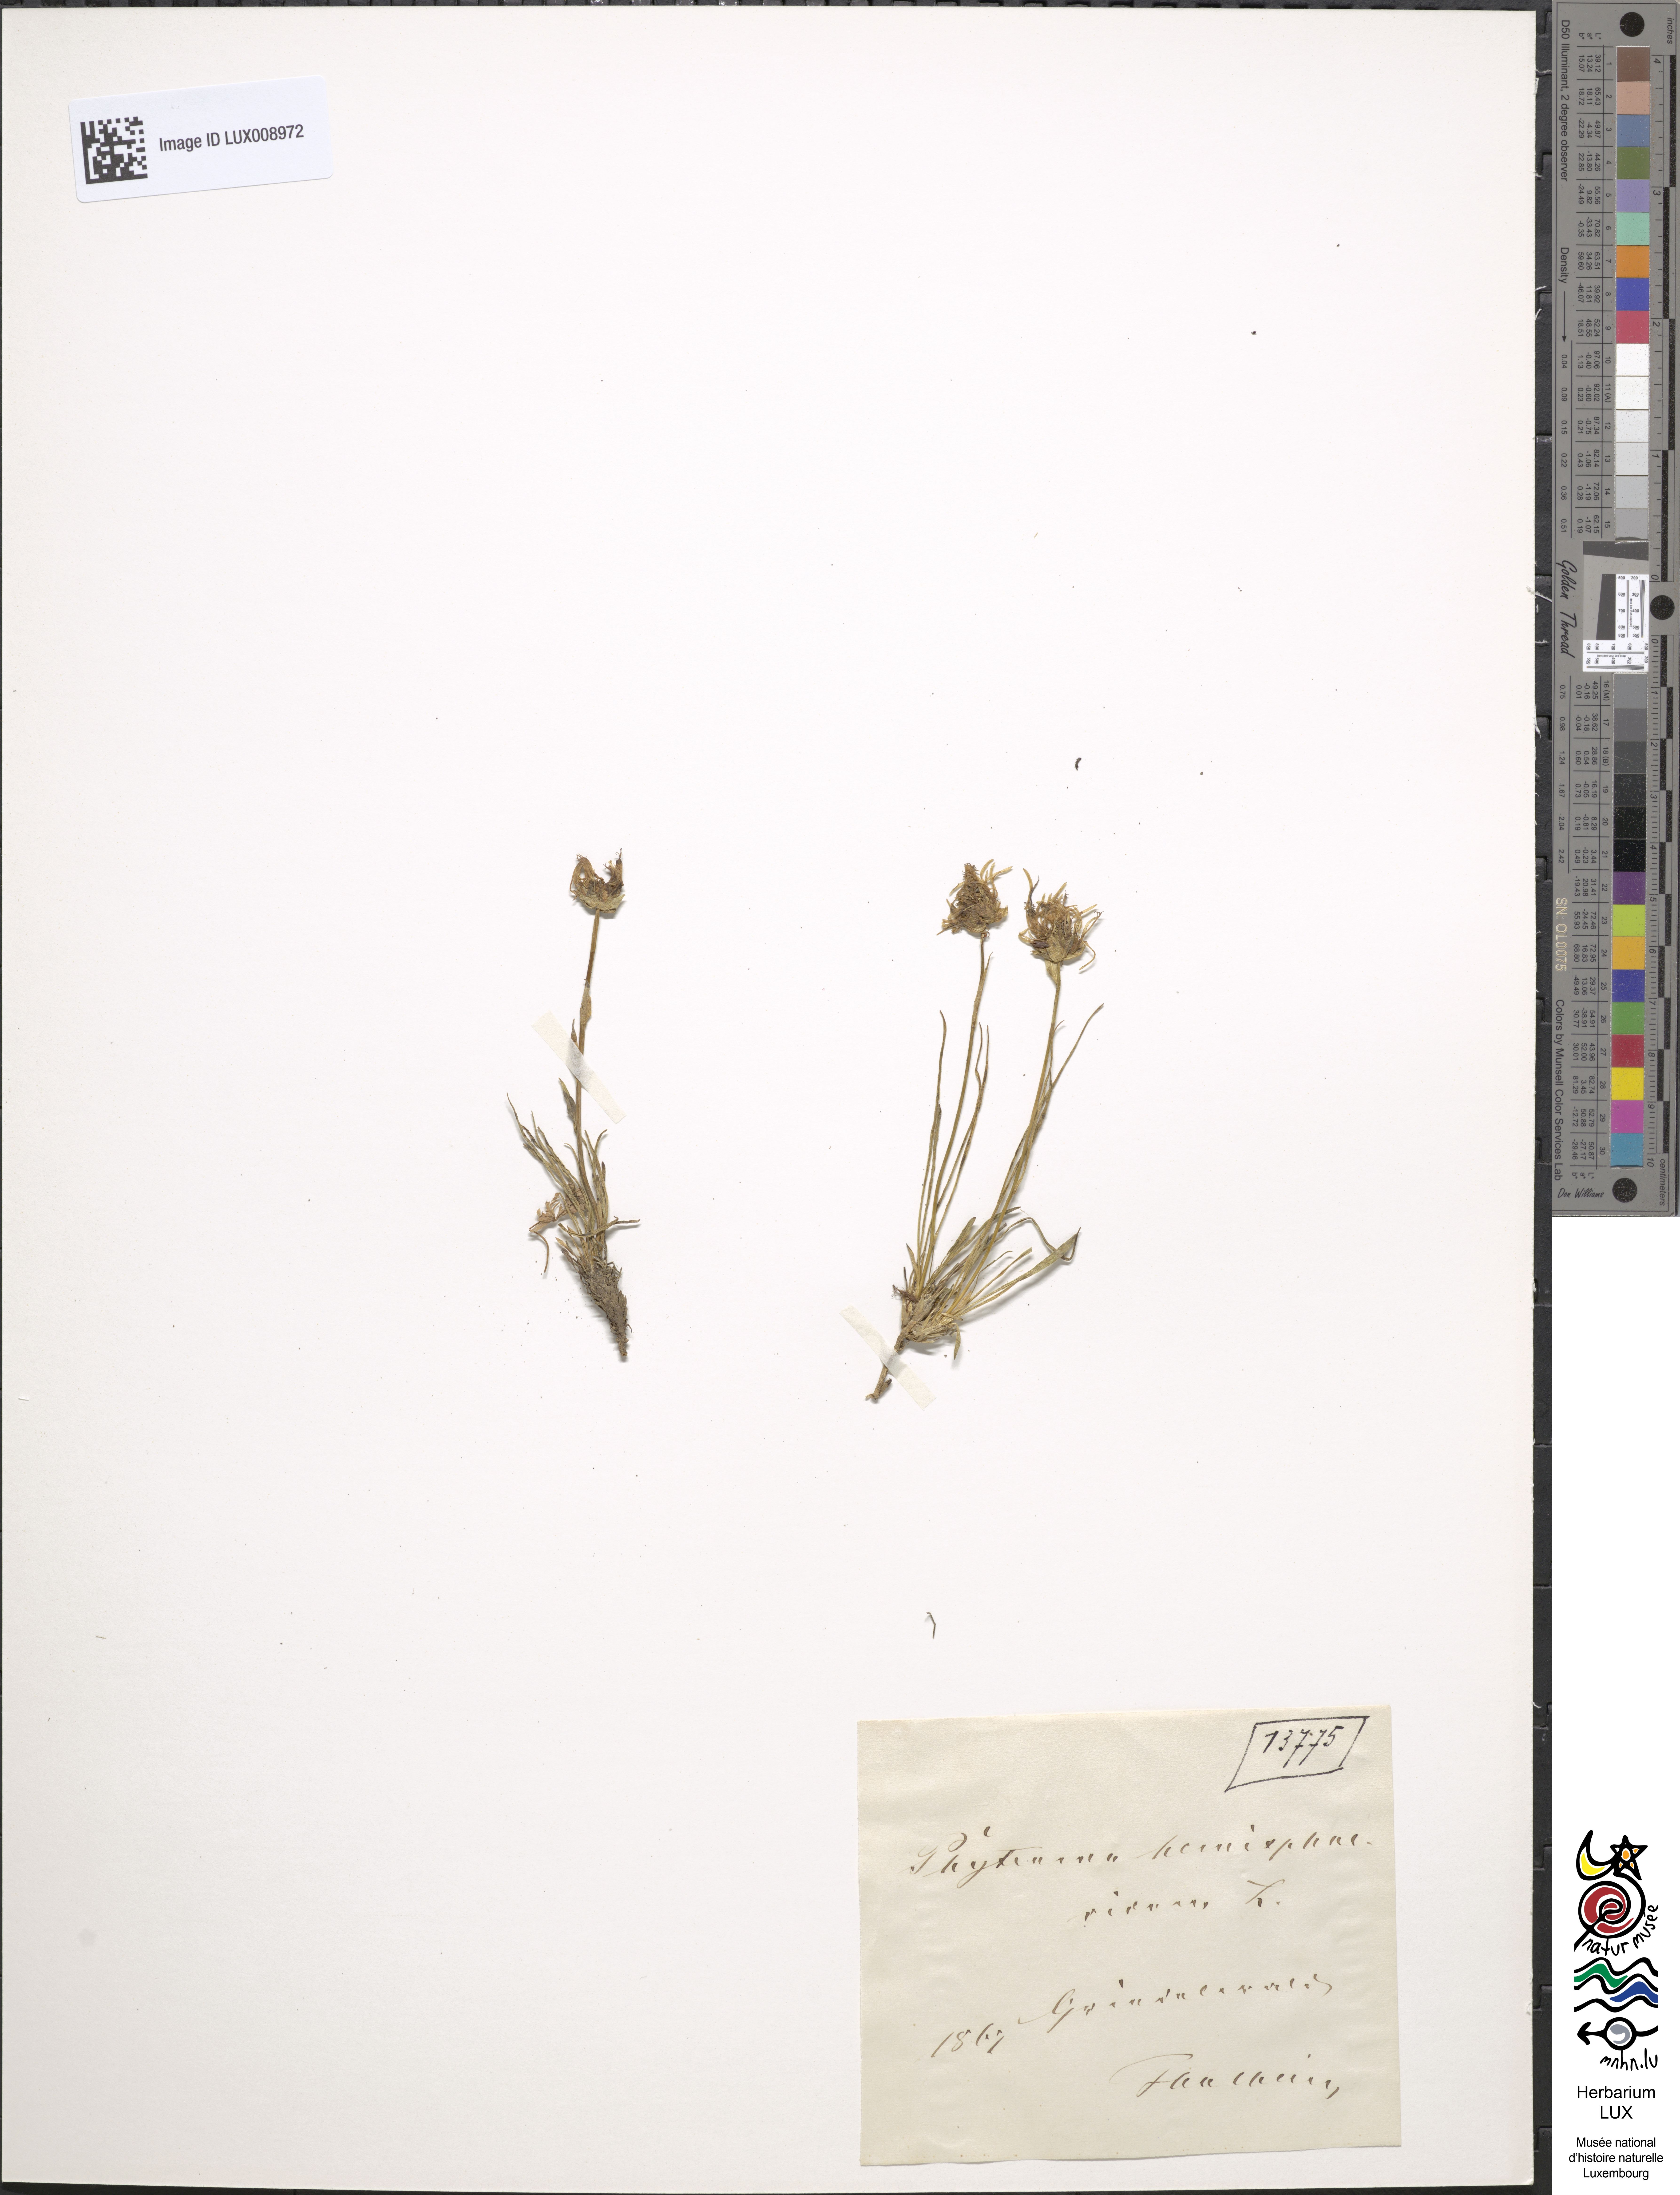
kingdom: Plantae
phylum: Tracheophyta
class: Magnoliopsida
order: Asterales
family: Campanulaceae
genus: Phyteuma
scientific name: Phyteuma hemisphaericum
